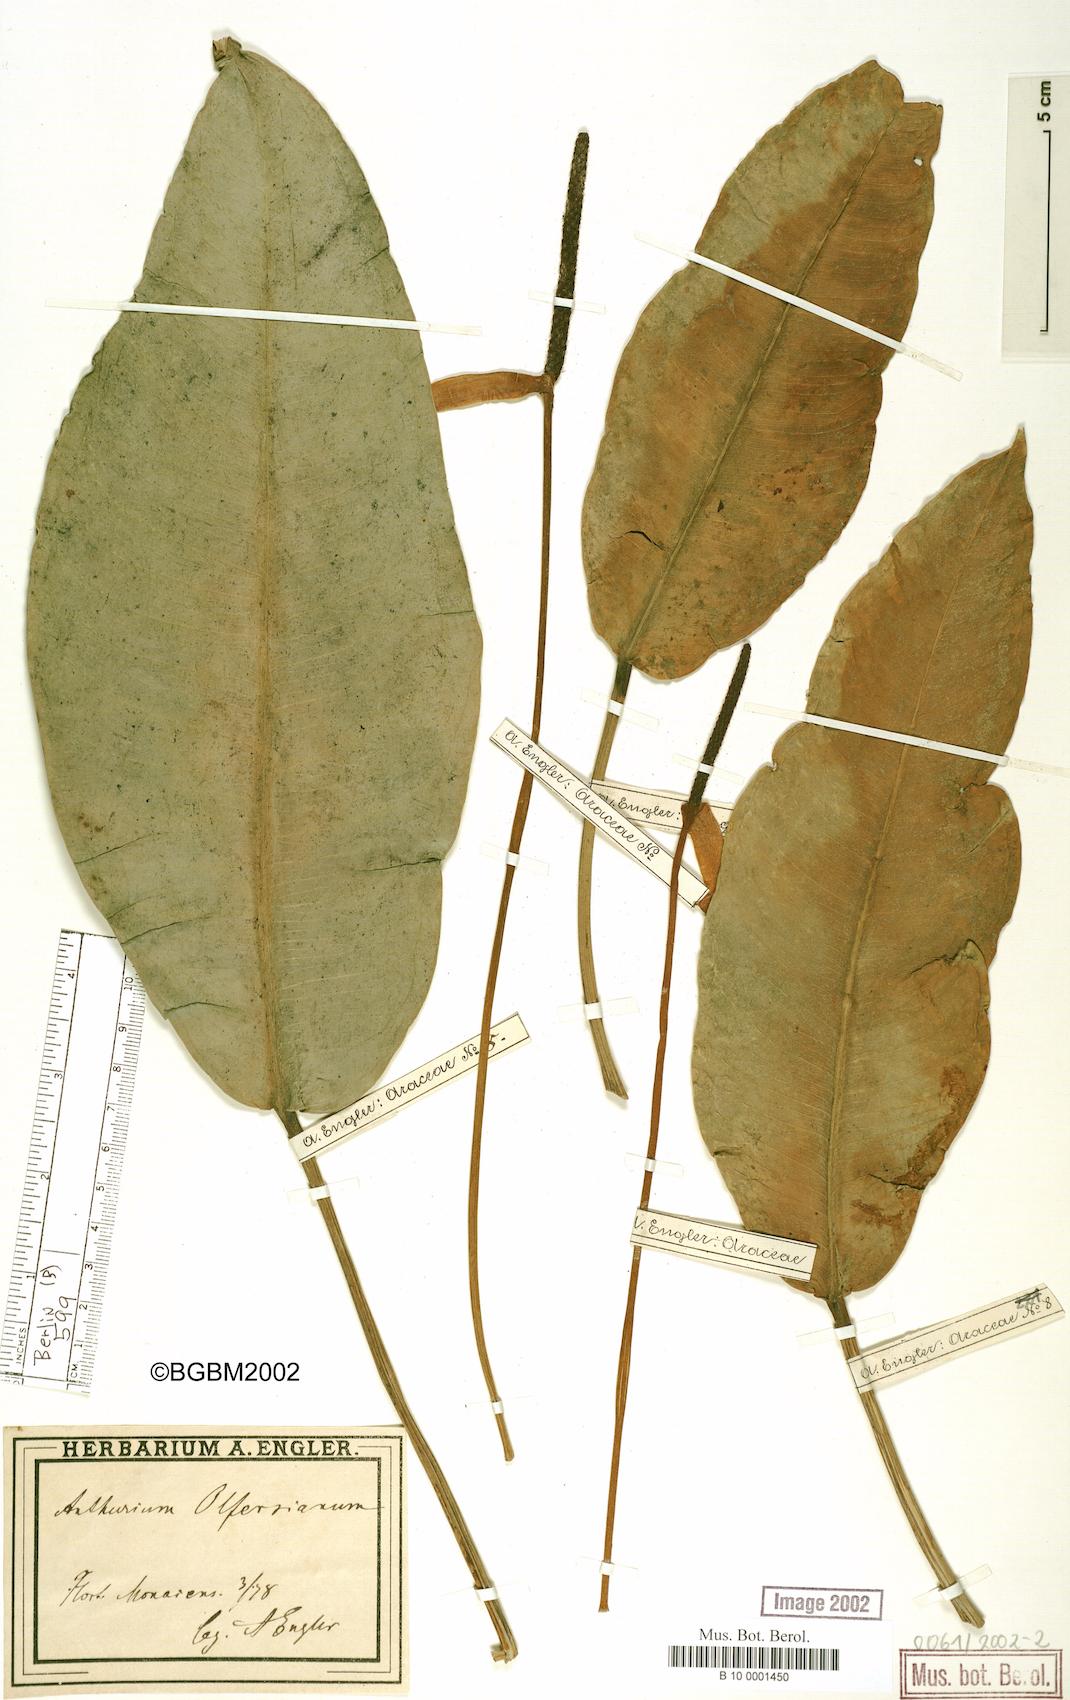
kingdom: Plantae
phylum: Tracheophyta
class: Liliopsida
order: Alismatales
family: Araceae
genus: Anthurium
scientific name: Anthurium parasiticum
